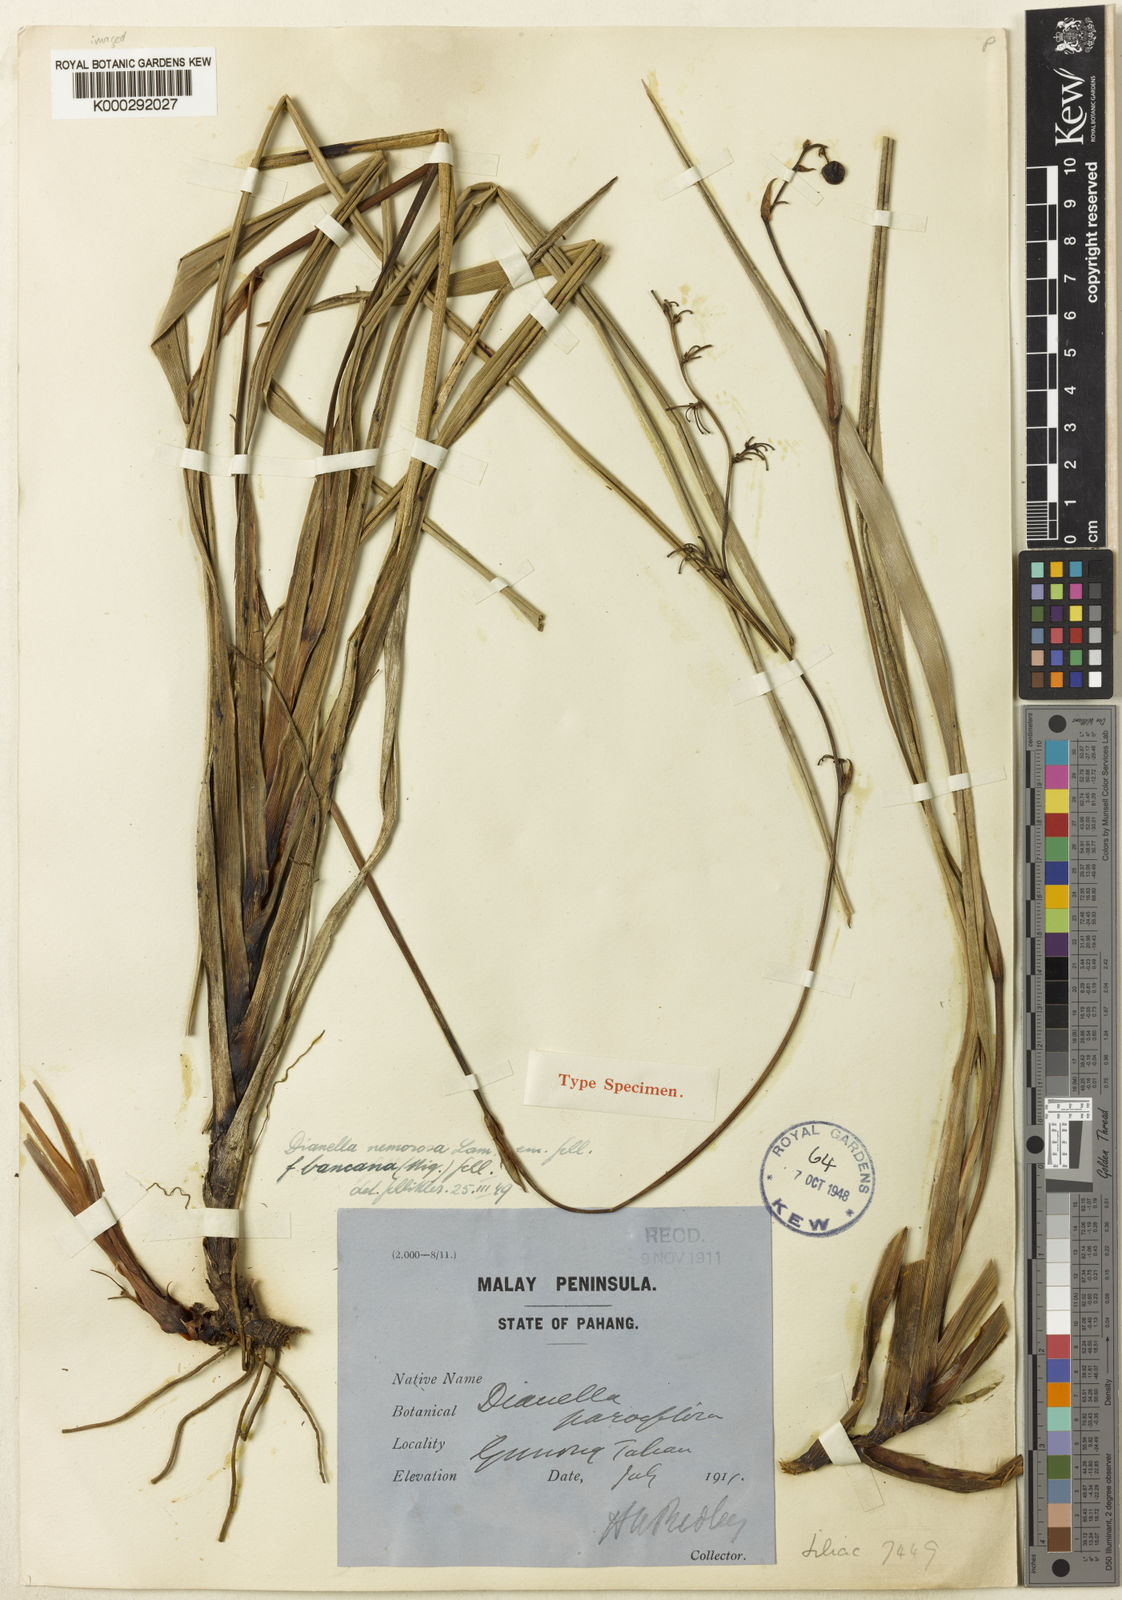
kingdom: Plantae
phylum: Tracheophyta
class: Liliopsida
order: Asparagales
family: Asphodelaceae
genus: Dianella
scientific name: Dianella
